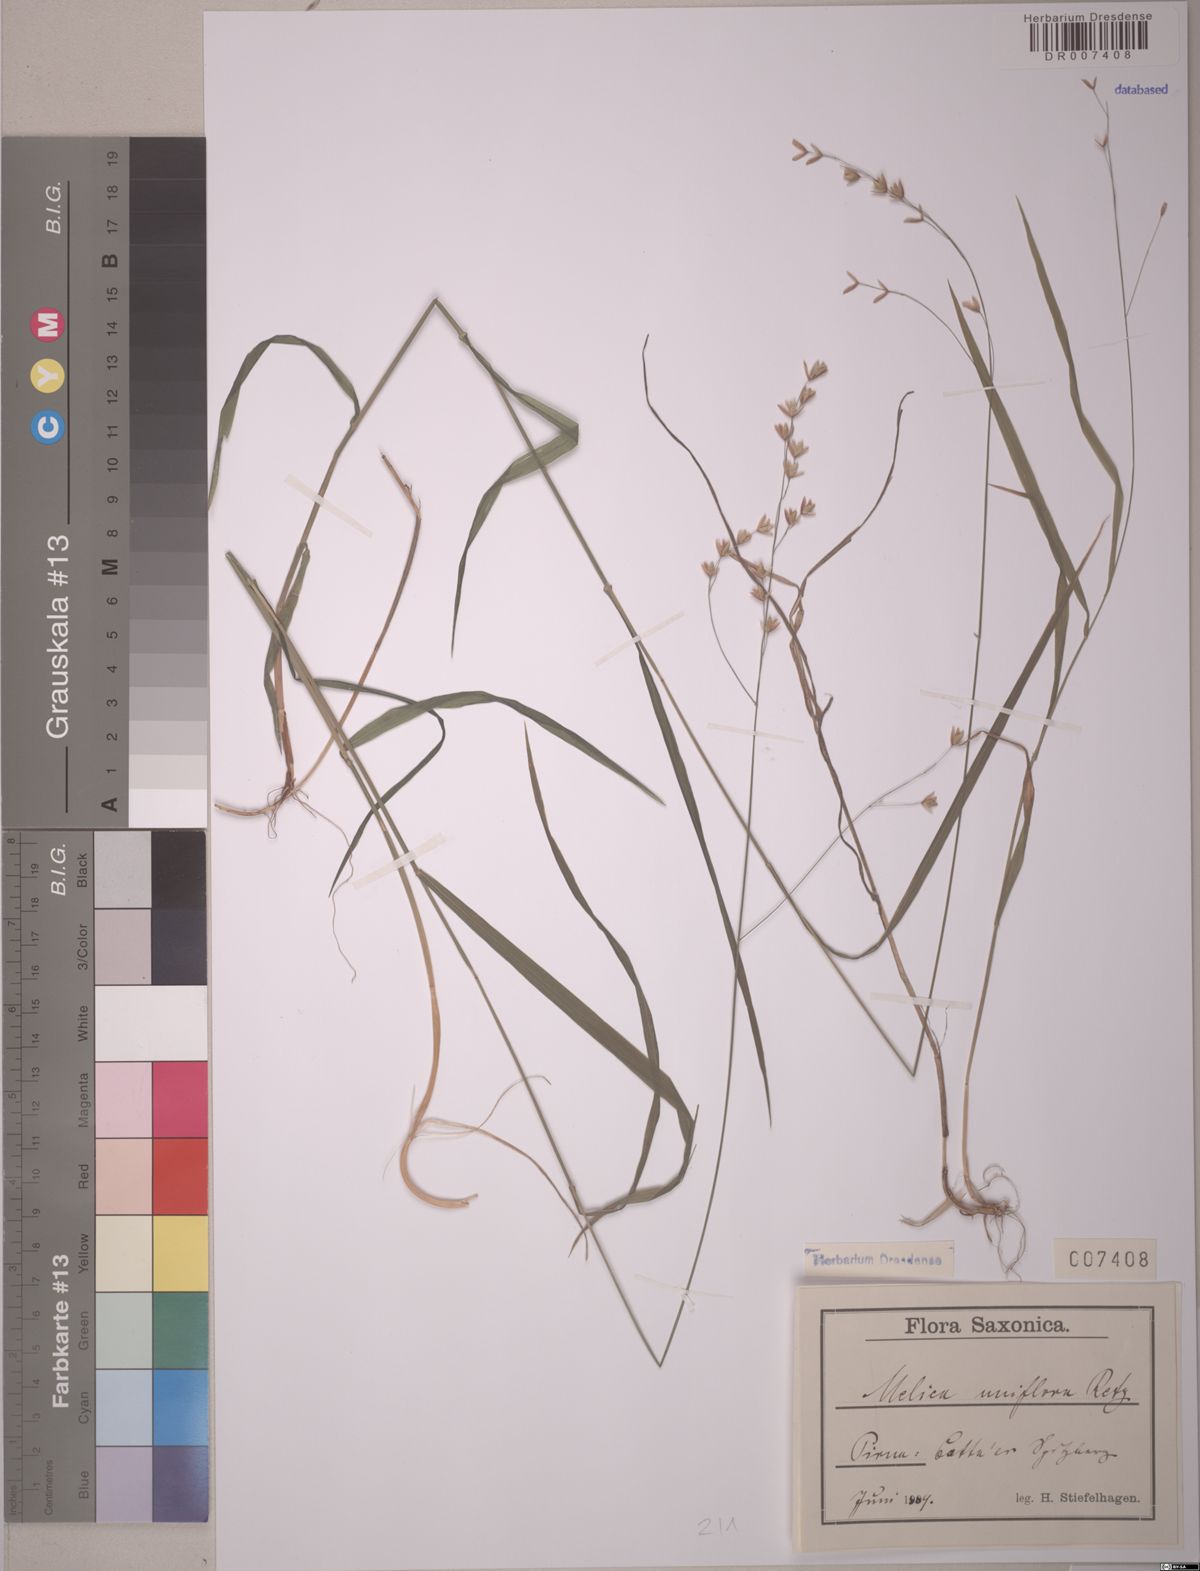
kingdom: Plantae
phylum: Tracheophyta
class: Liliopsida
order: Poales
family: Poaceae
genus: Melica
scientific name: Melica uniflora
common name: Wood melick
